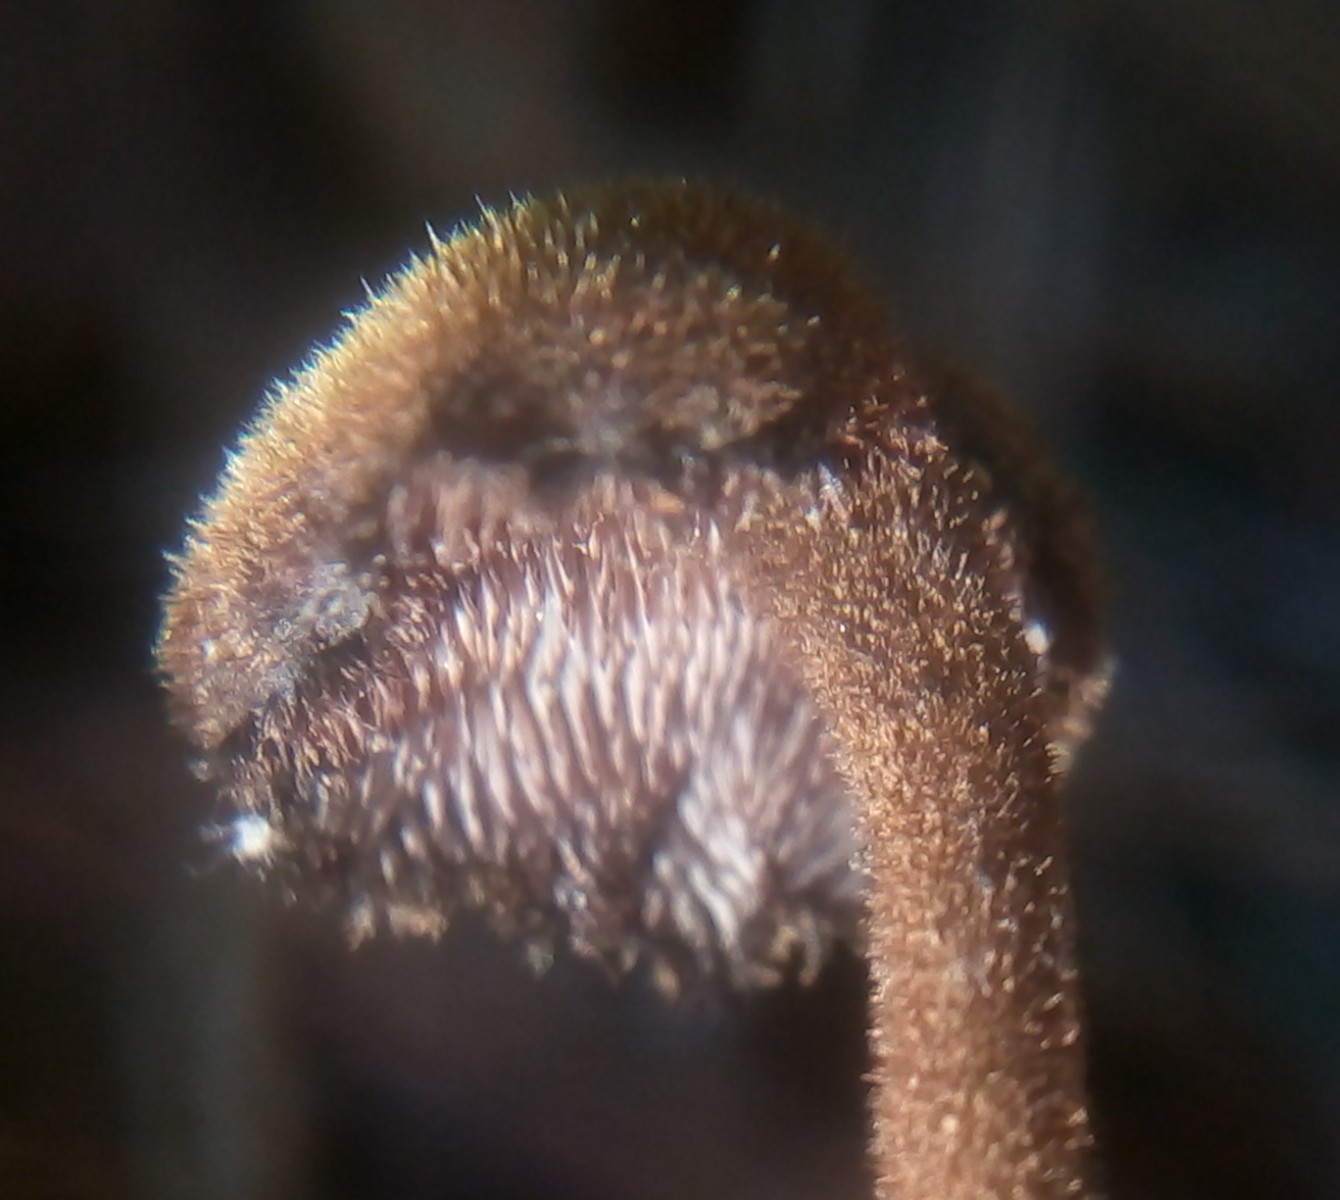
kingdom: Fungi
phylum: Basidiomycota
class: Agaricomycetes
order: Russulales
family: Auriscalpiaceae
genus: Auriscalpium
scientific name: Auriscalpium vulgare
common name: koglepigsvamp
